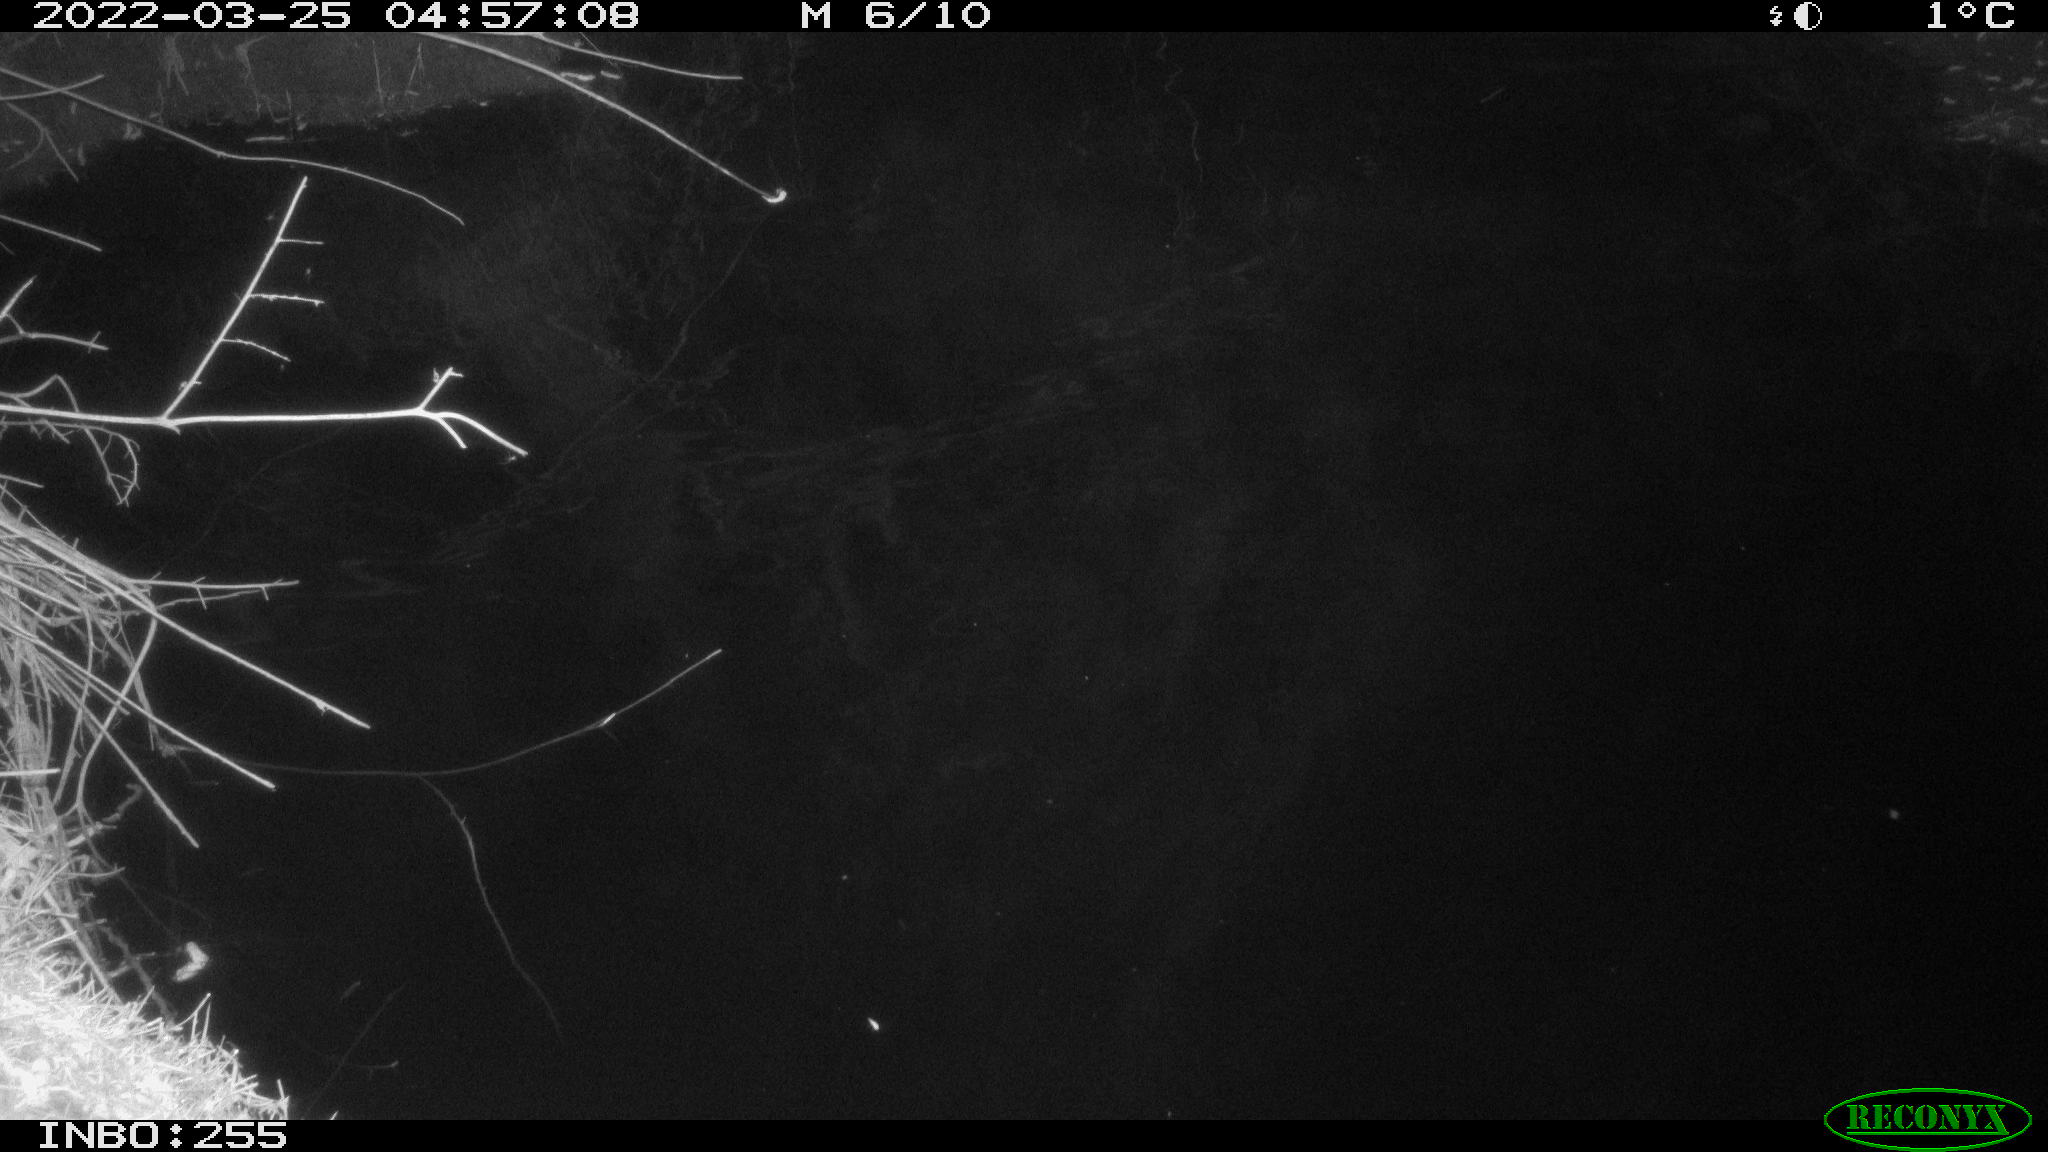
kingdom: Animalia
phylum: Chordata
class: Aves
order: Anseriformes
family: Anatidae
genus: Anas
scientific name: Anas platyrhynchos
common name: Mallard
